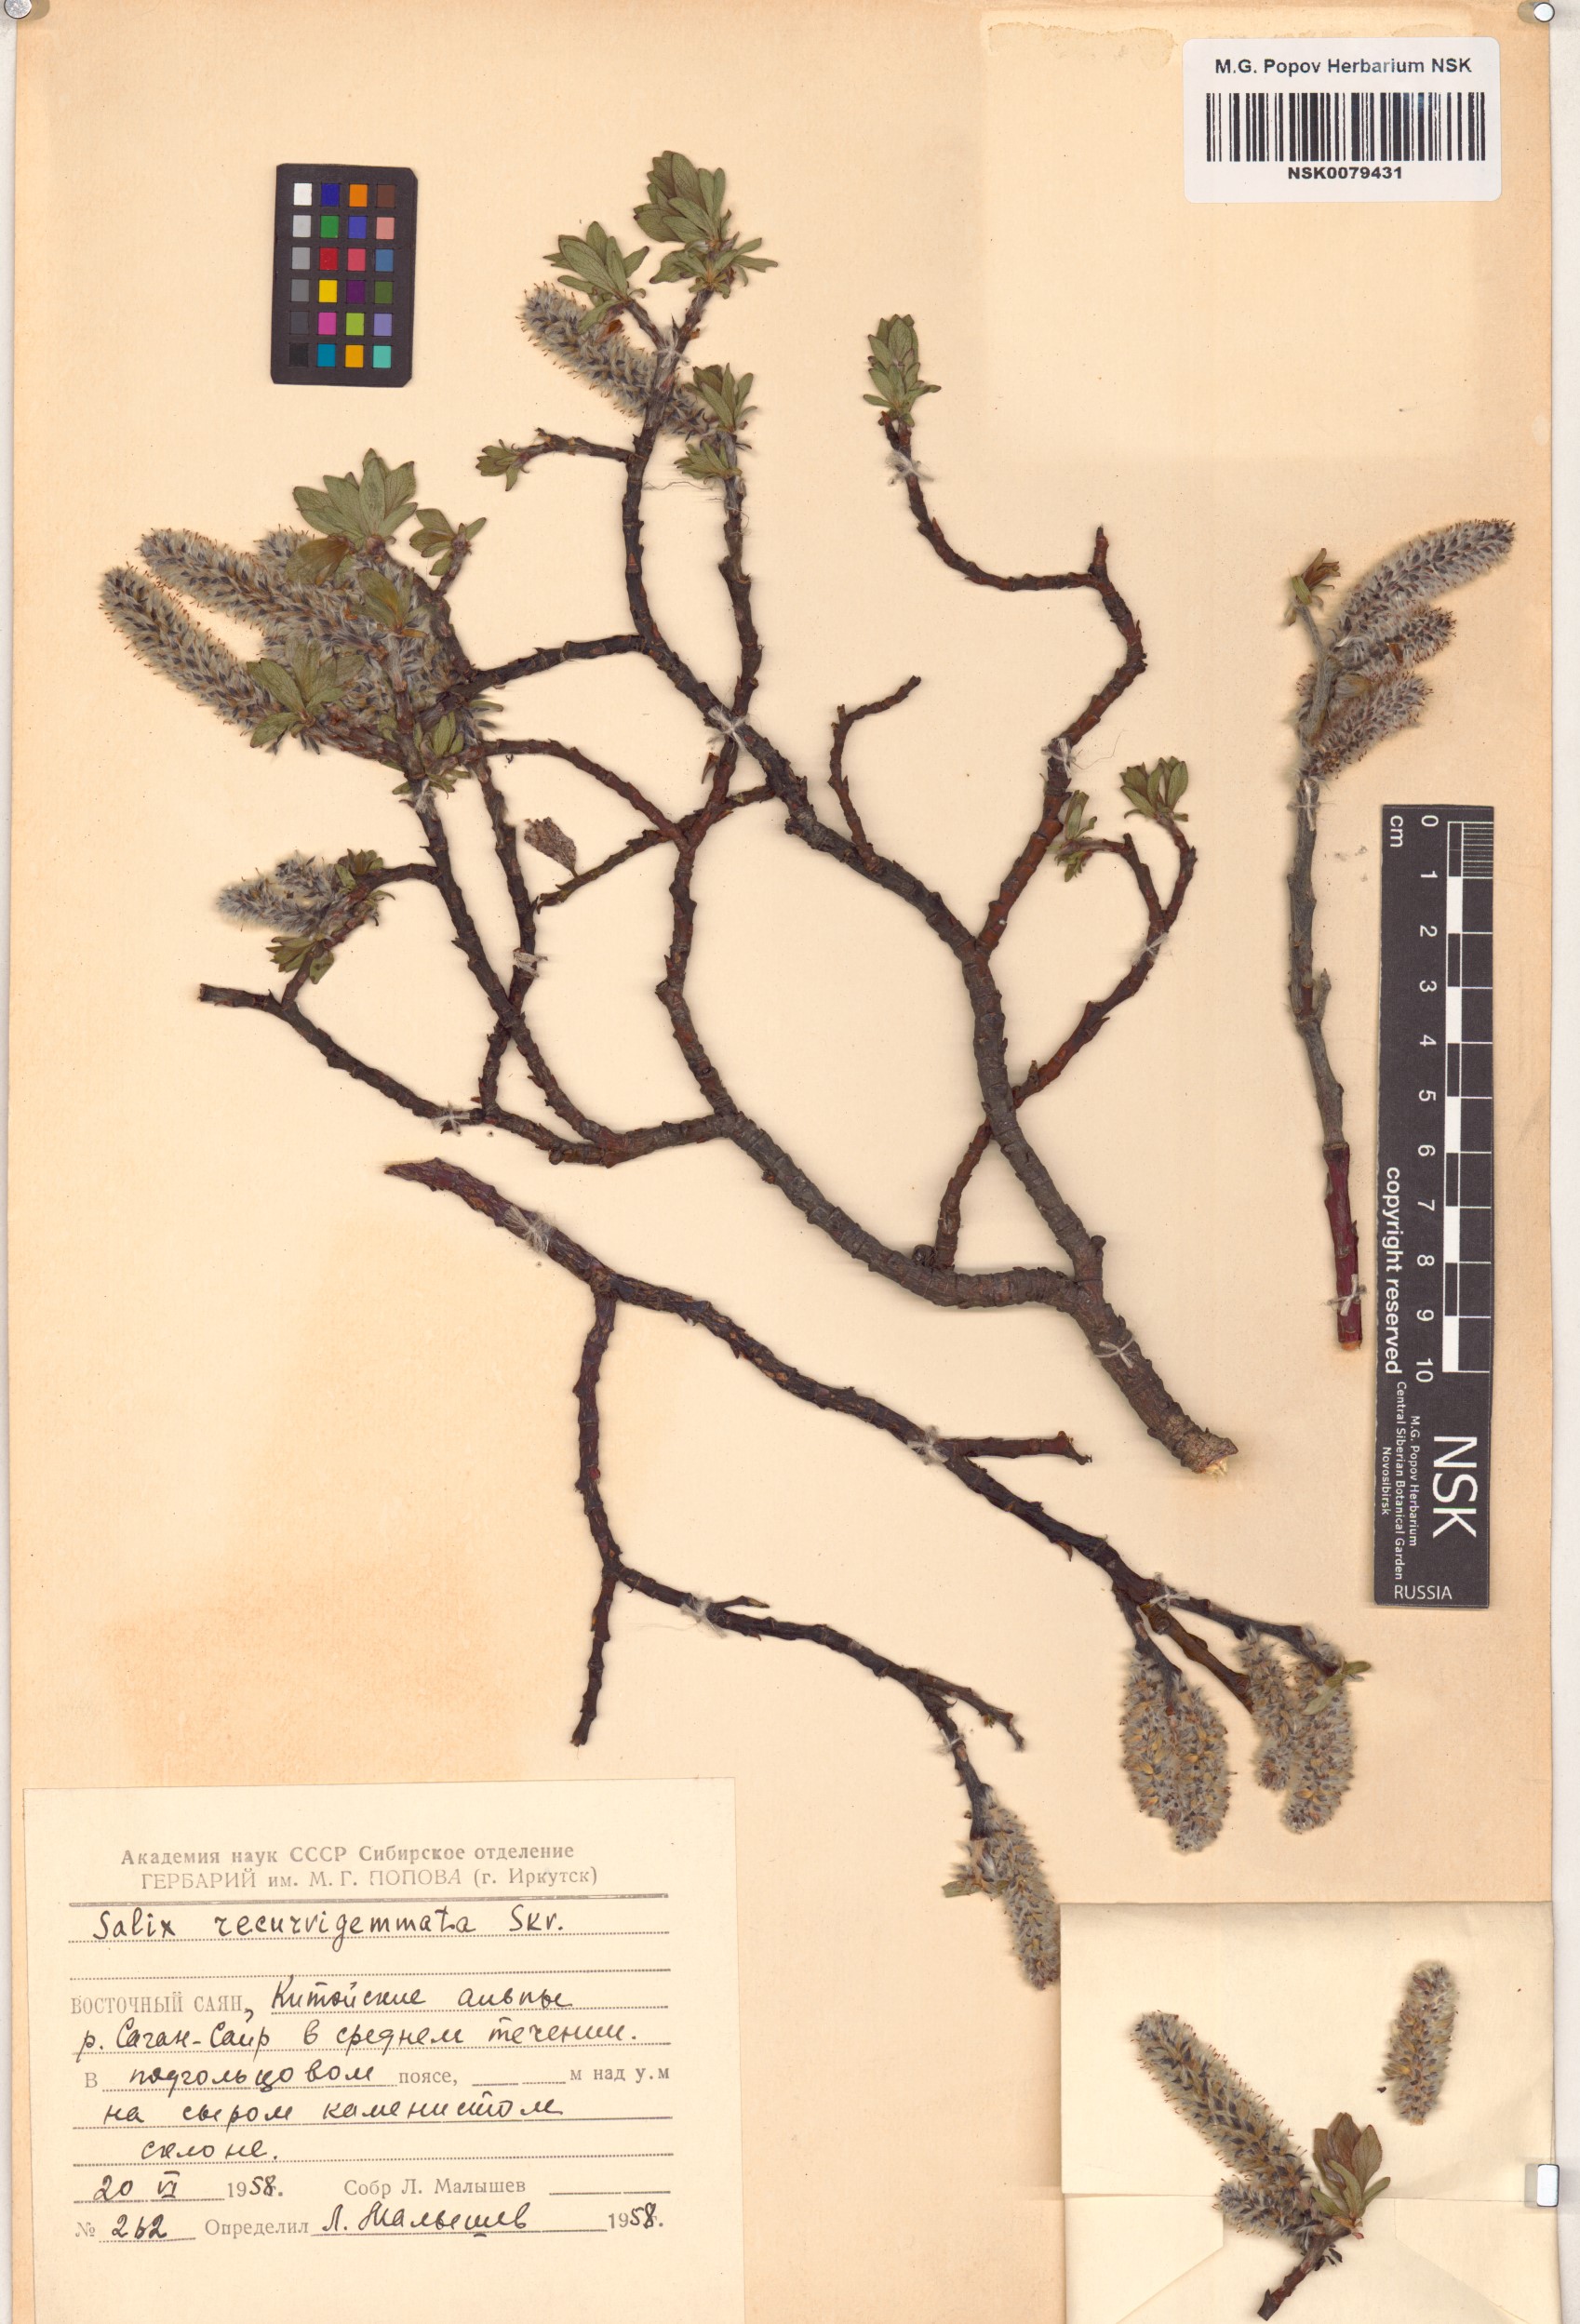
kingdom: Plantae
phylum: Tracheophyta
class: Magnoliopsida
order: Malpighiales
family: Salicaceae
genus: Salix
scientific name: Salix recurvigemmata
